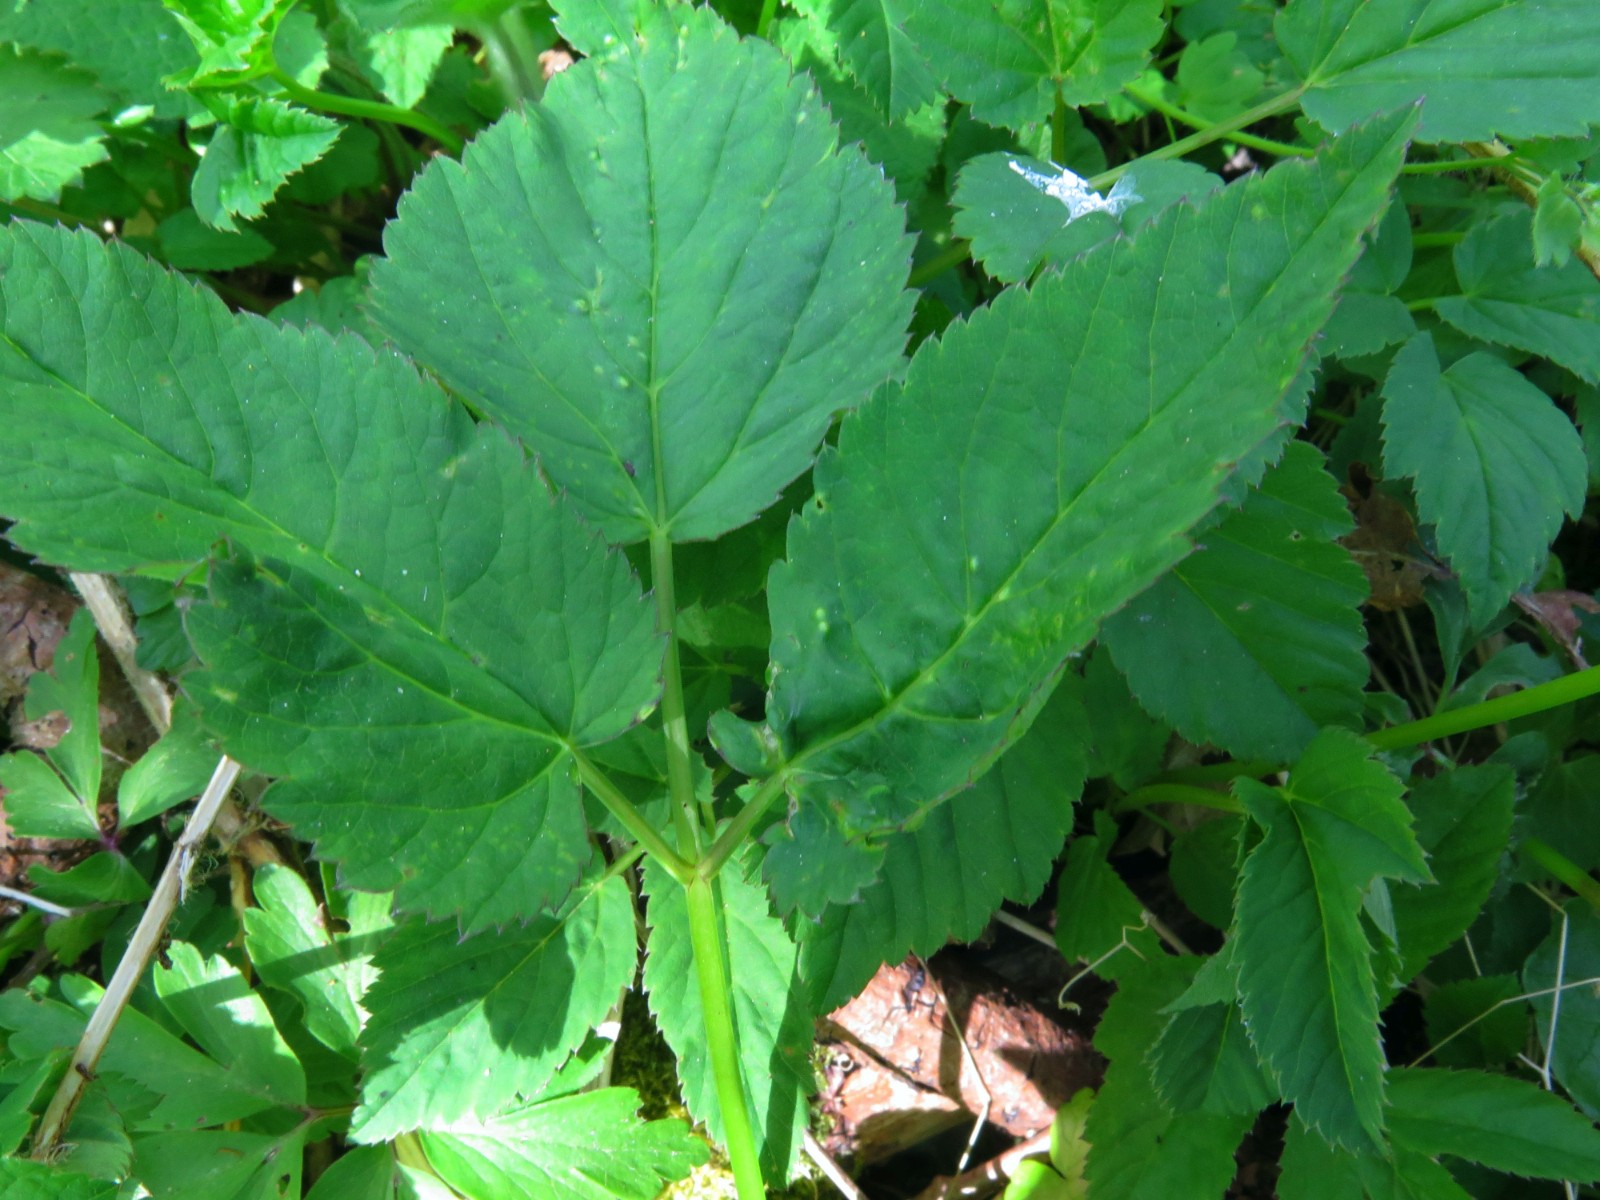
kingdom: Fungi
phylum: Ascomycota
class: Taphrinomycetes
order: Taphrinales
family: Taphrinaceae
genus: Protomyces
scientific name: Protomyces macrosporus
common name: skvalderkål-vablesæk
